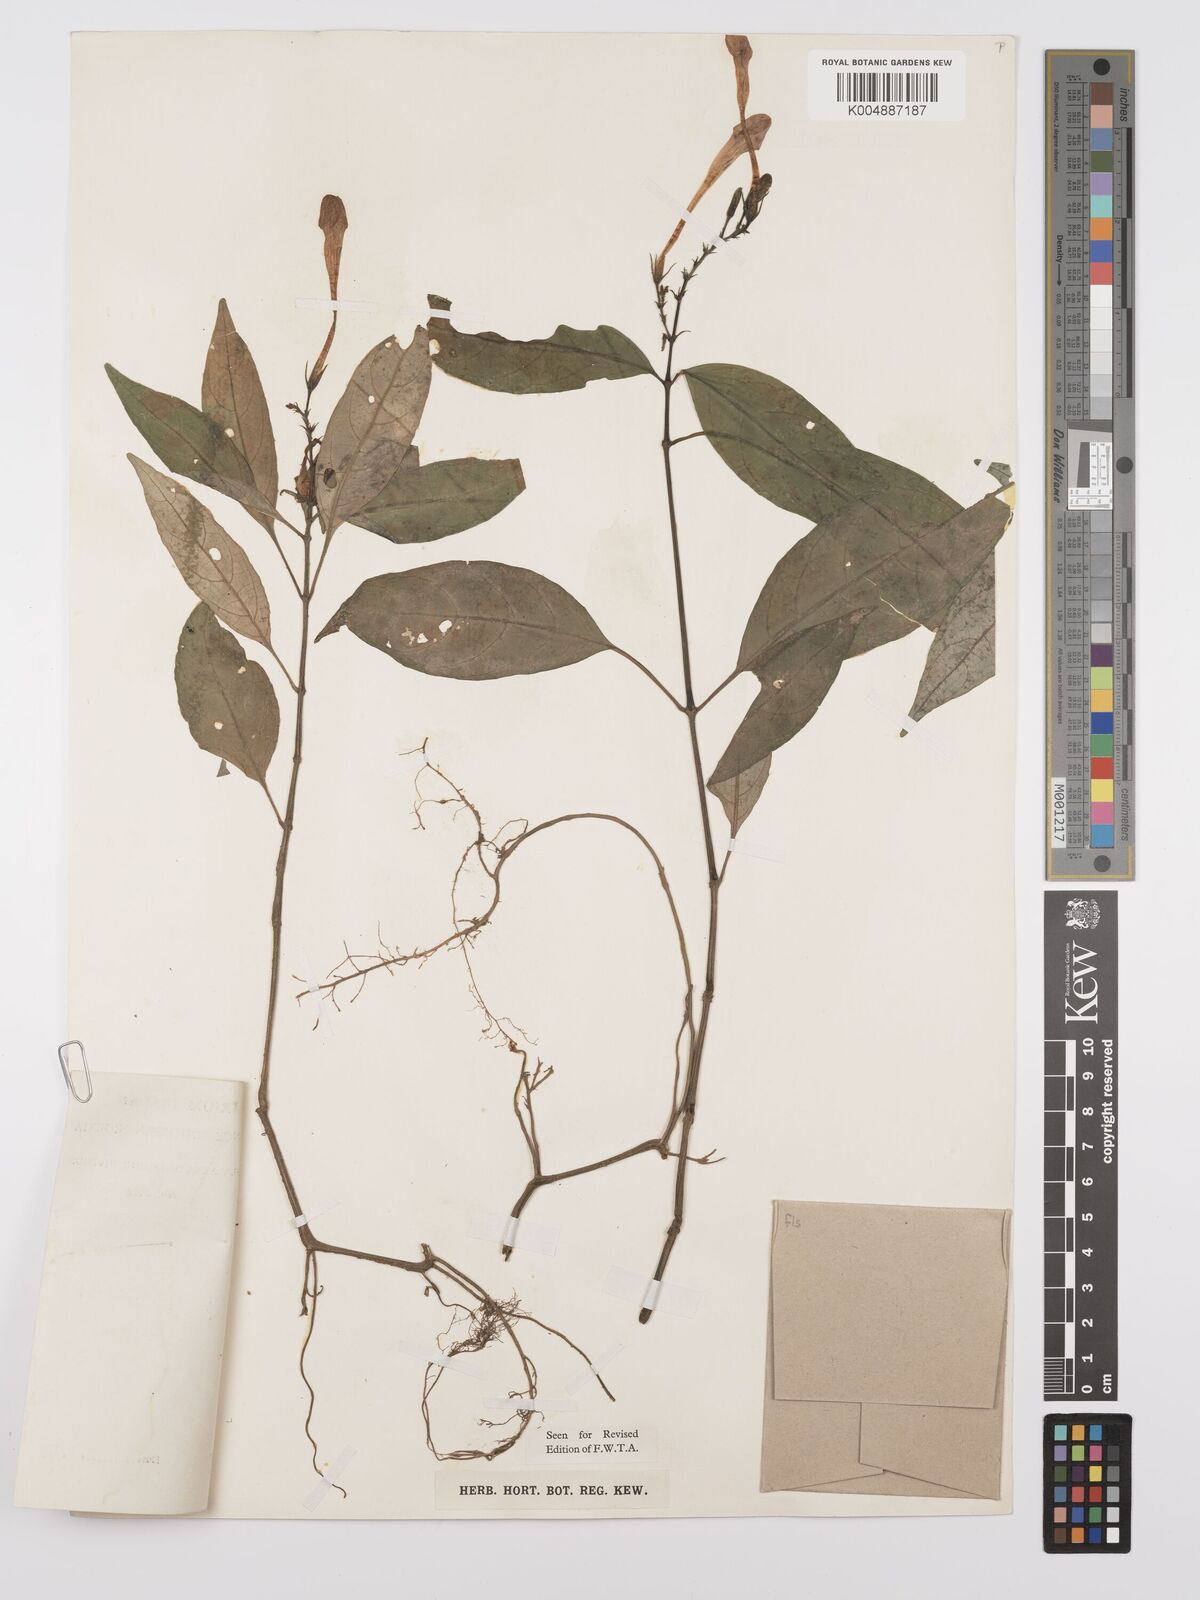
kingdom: Plantae
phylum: Tracheophyta
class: Magnoliopsida
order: Lamiales
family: Acanthaceae
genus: Asystasia
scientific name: Asystasia vogeliana
